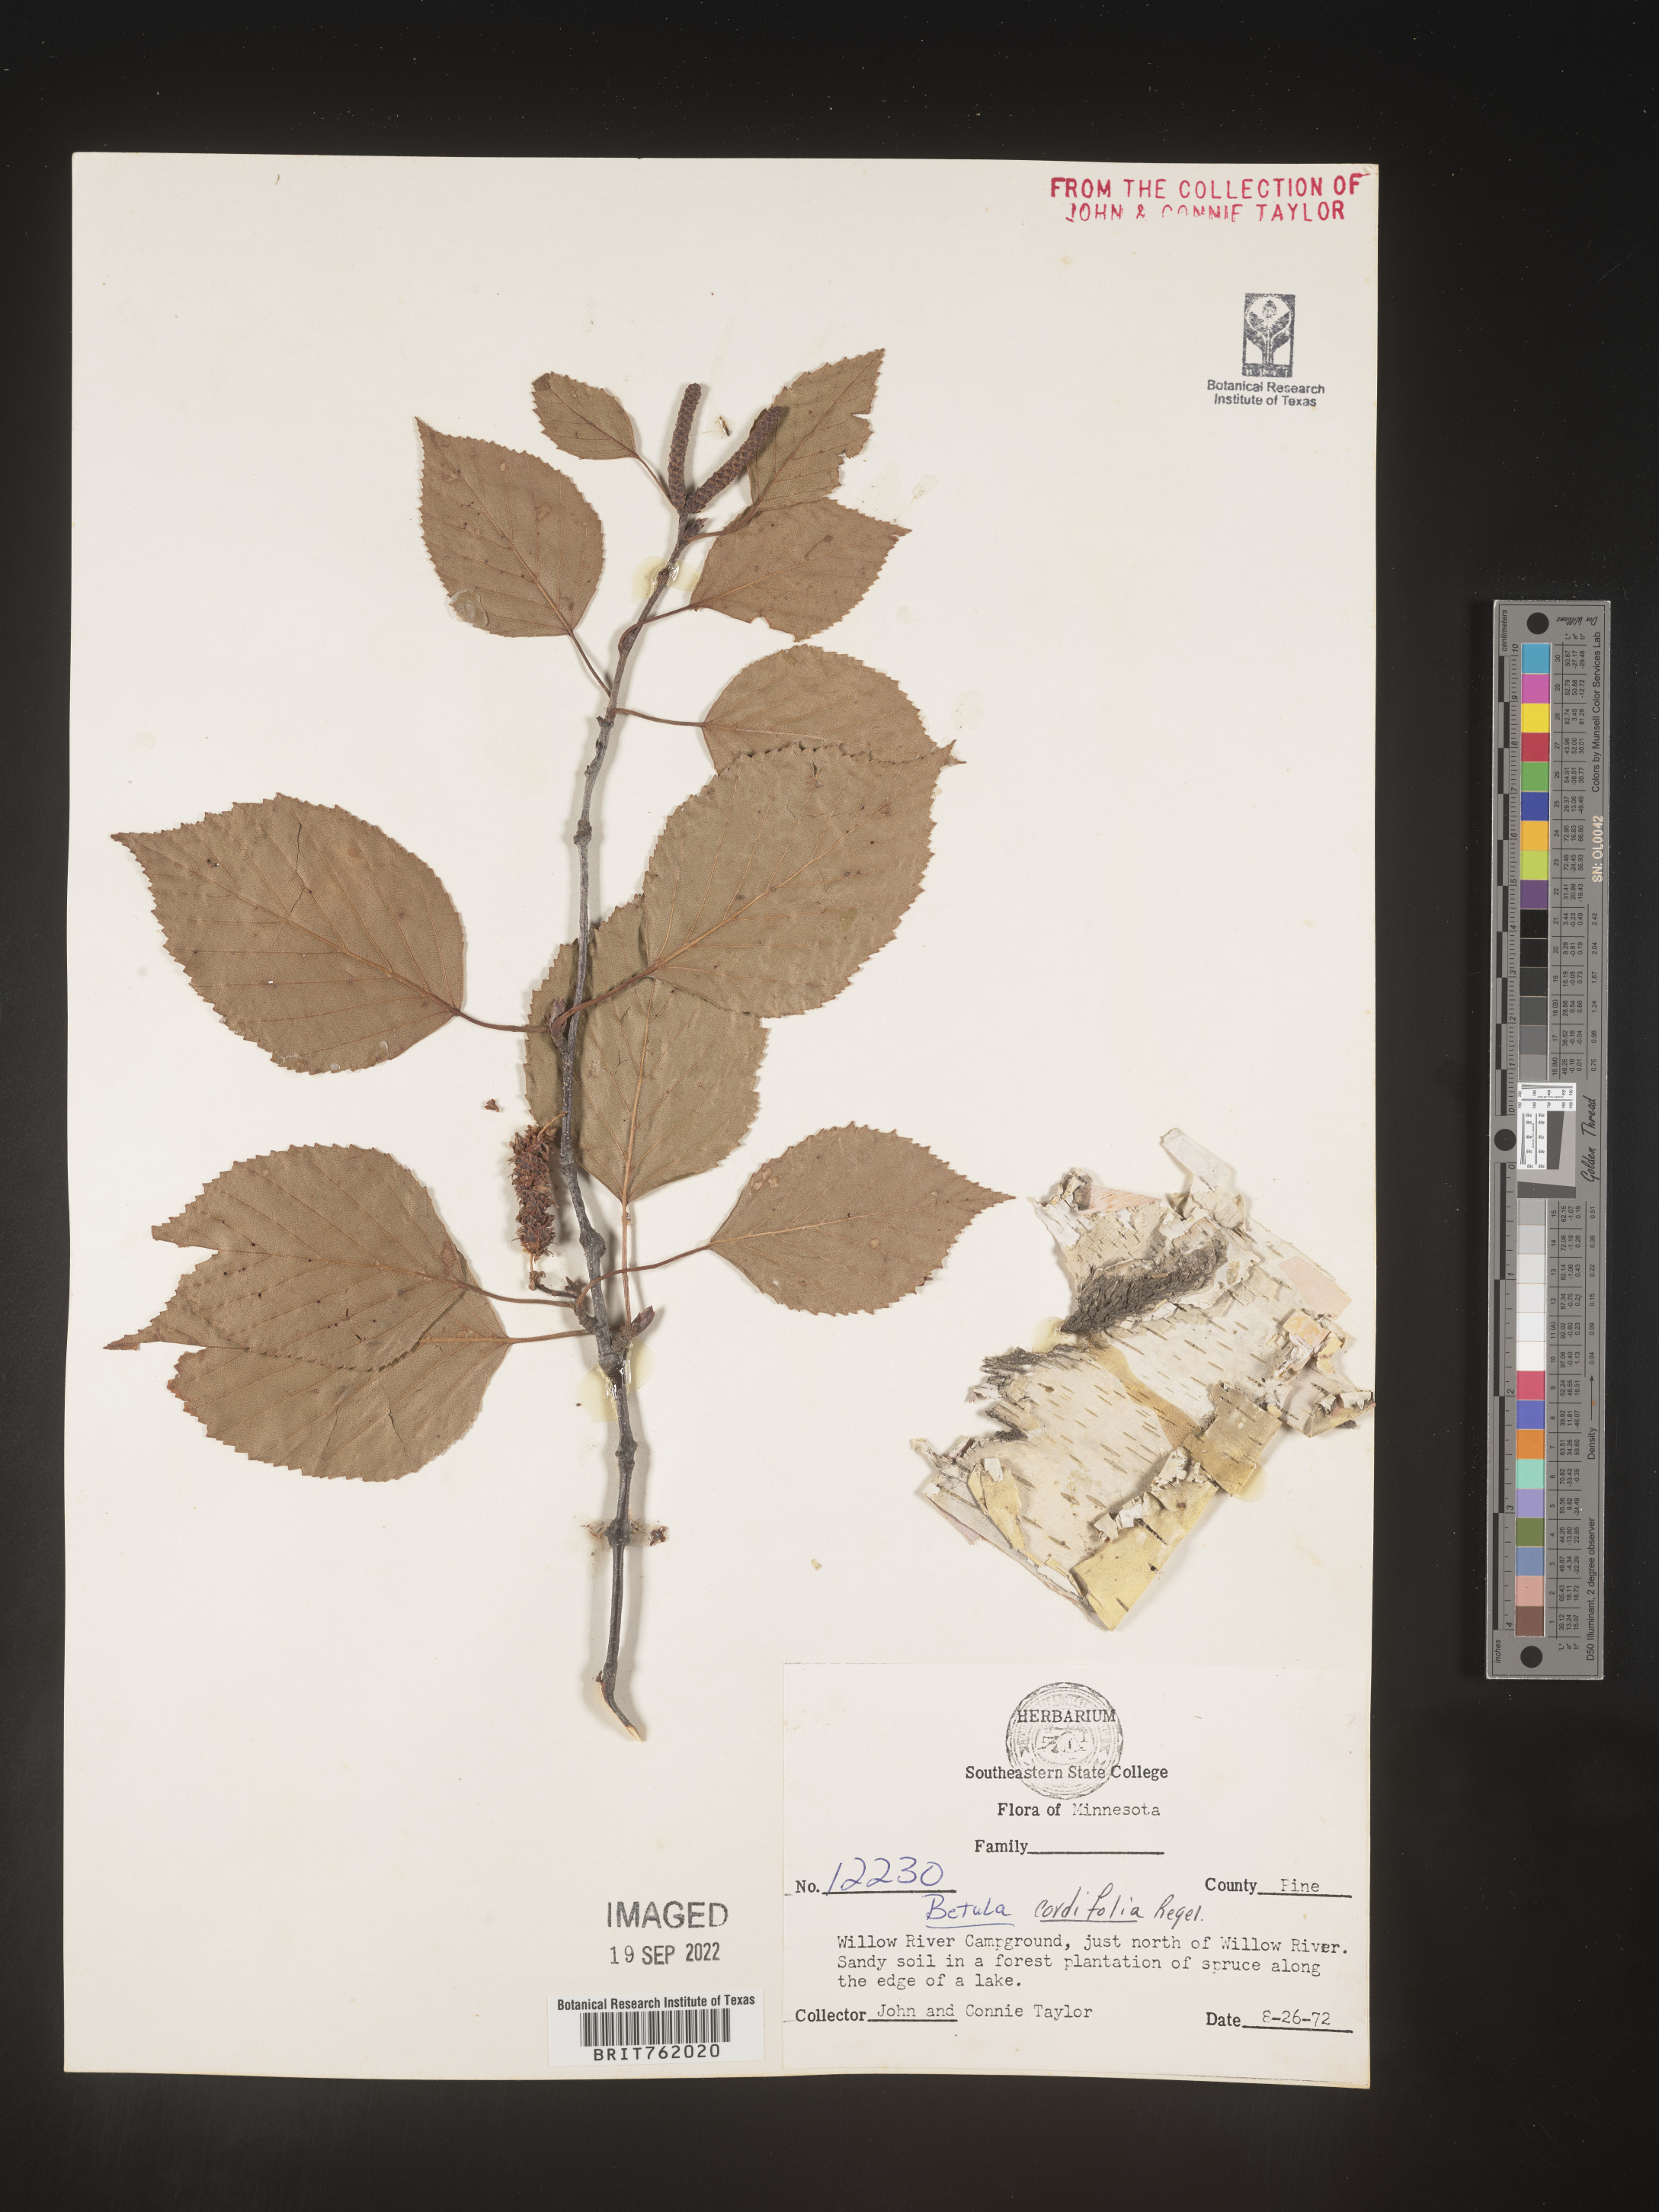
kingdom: Plantae
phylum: Tracheophyta
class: Magnoliopsida
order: Fagales
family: Betulaceae
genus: Betula
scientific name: Betula papyrifera
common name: Paper birch
